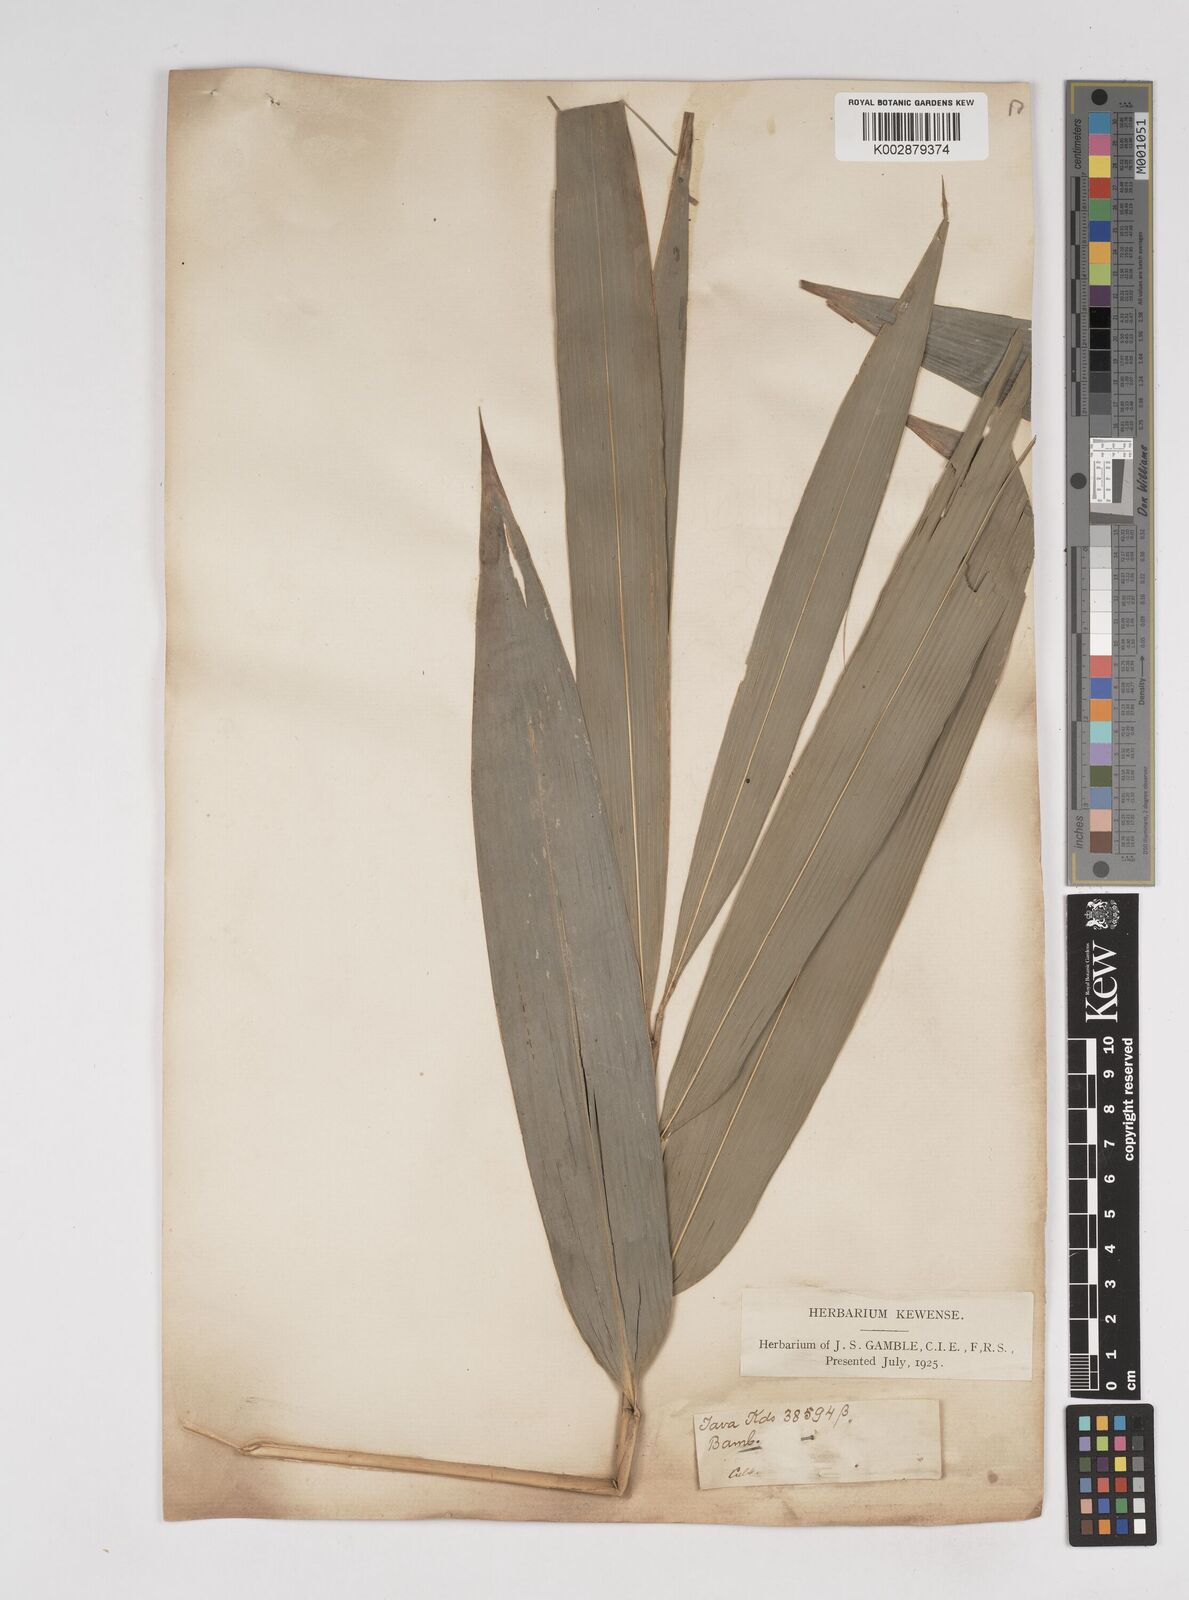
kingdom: Plantae
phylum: Tracheophyta
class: Liliopsida
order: Poales
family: Poaceae
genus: Dendrocalamus
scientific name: Dendrocalamus asper
